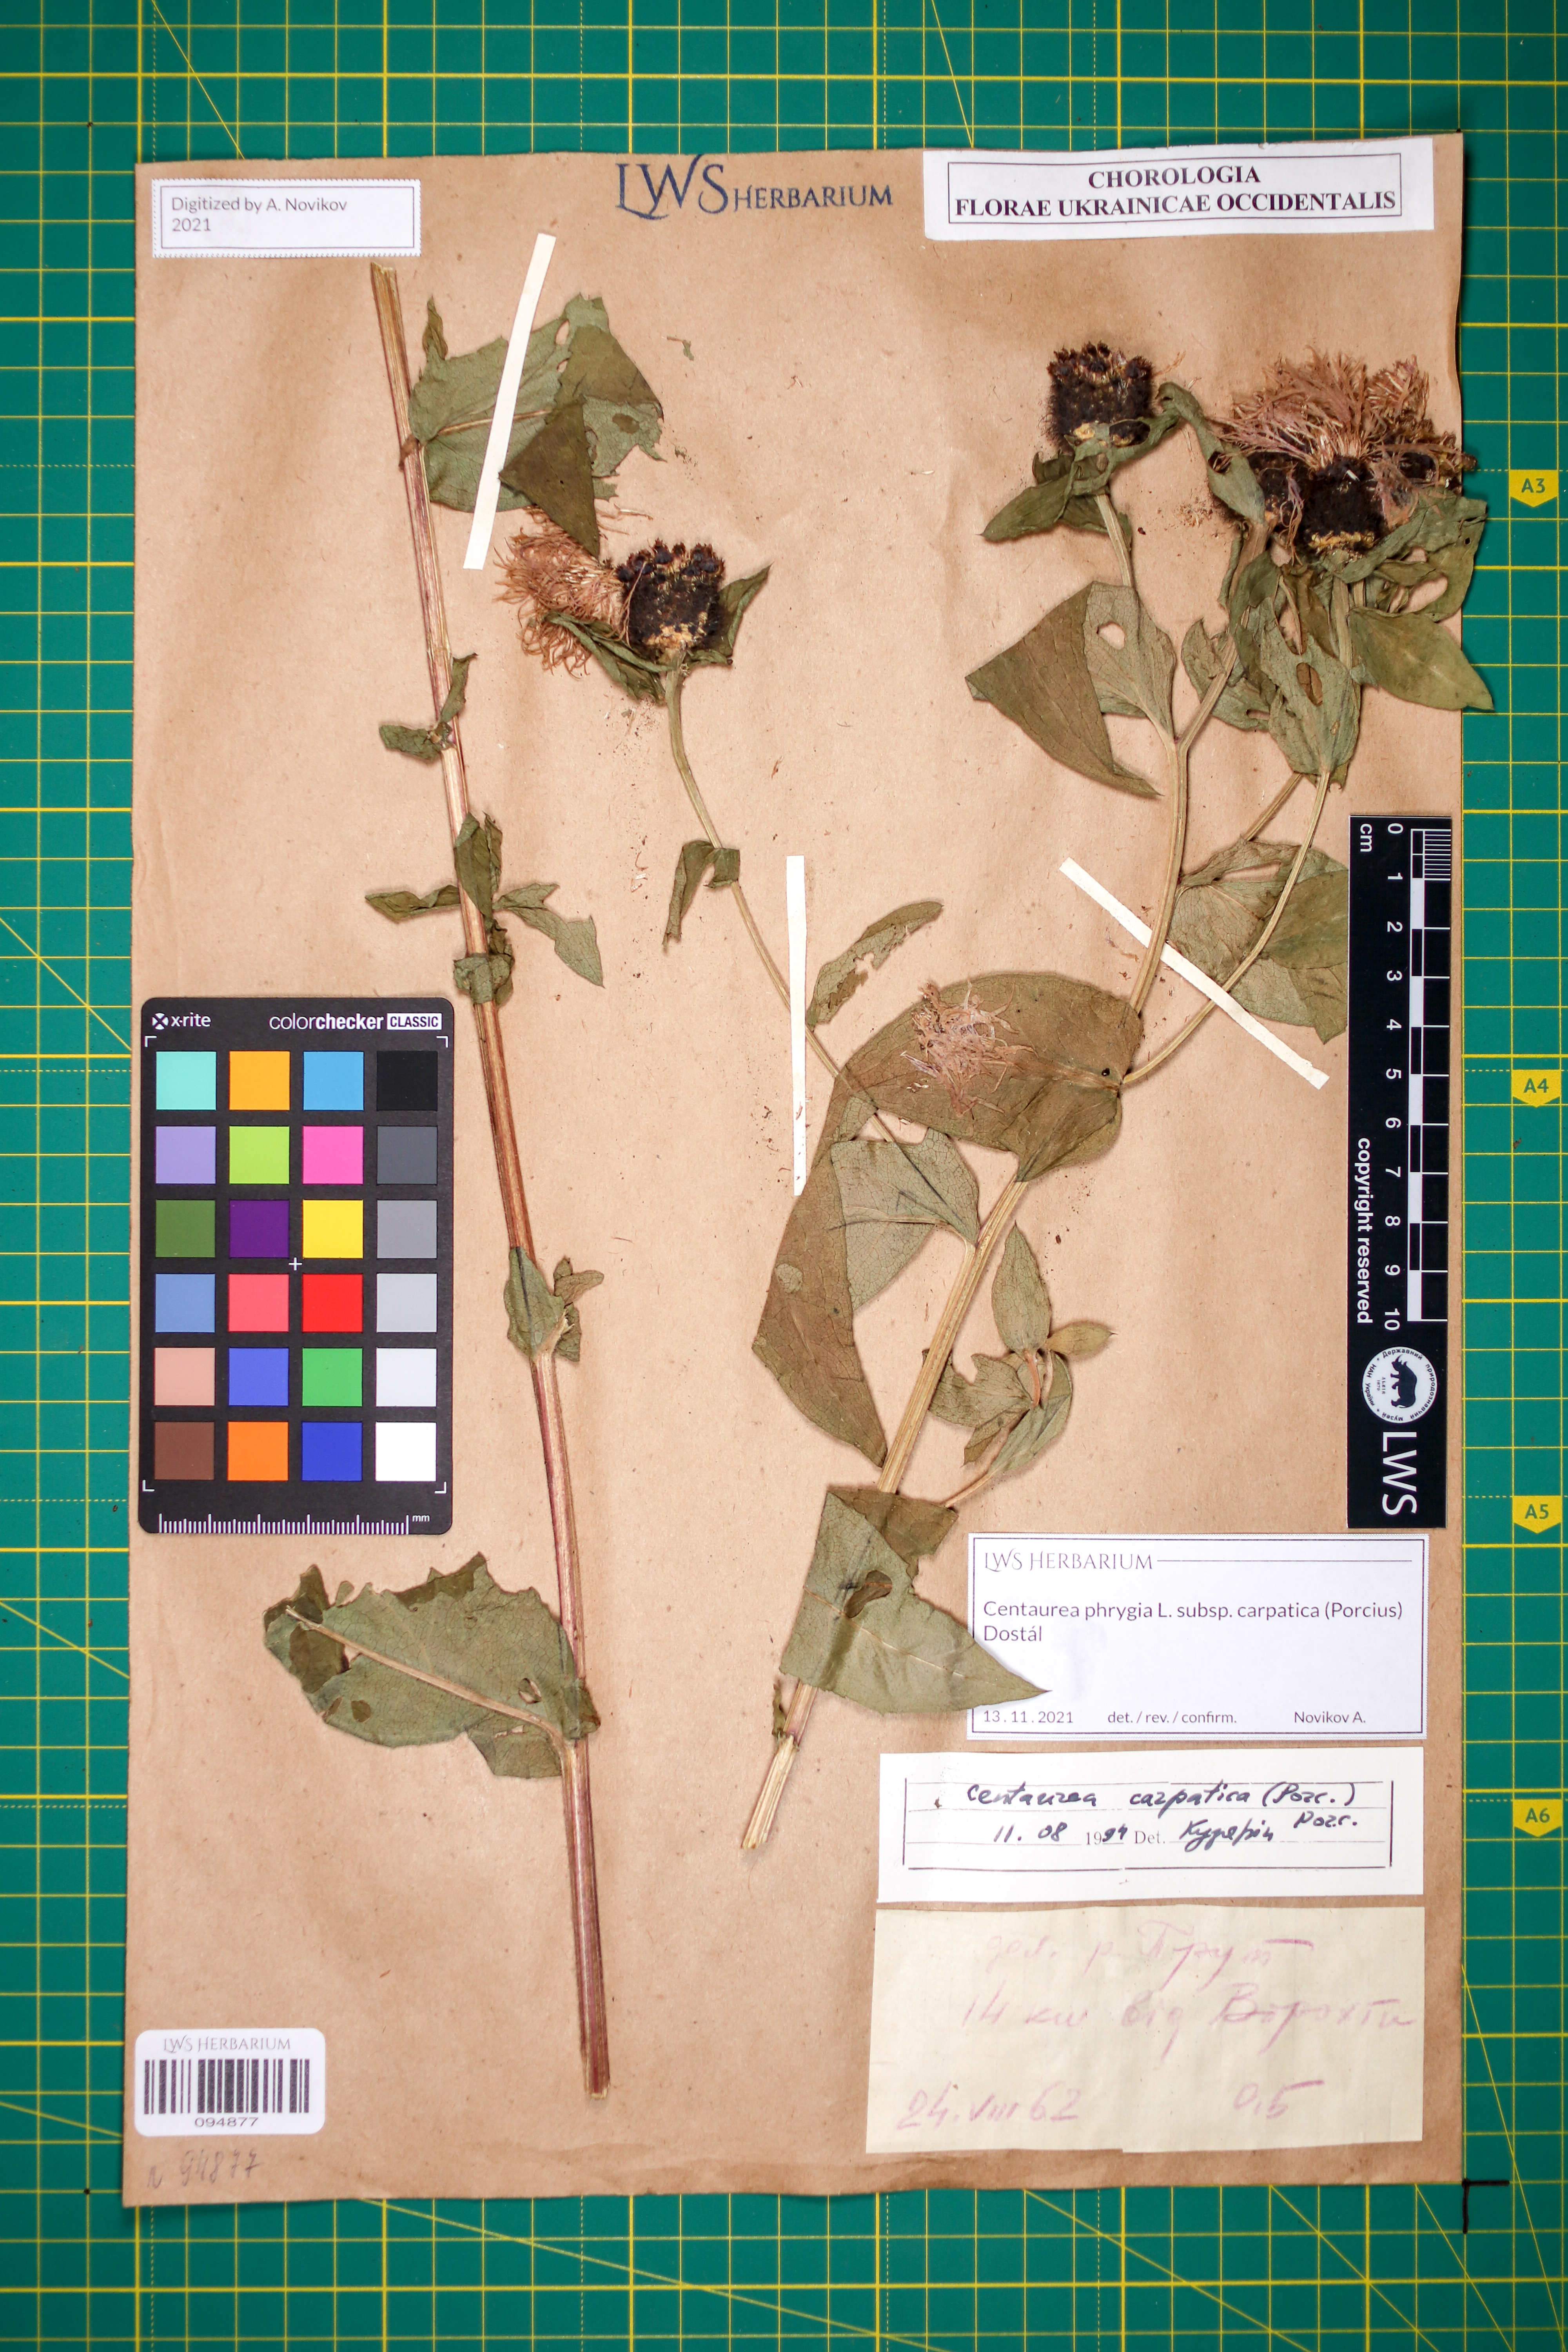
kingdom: Plantae
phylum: Tracheophyta
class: Magnoliopsida
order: Asterales
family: Asteraceae
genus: Centaurea
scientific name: Centaurea phrygia
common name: Wig knapweed
